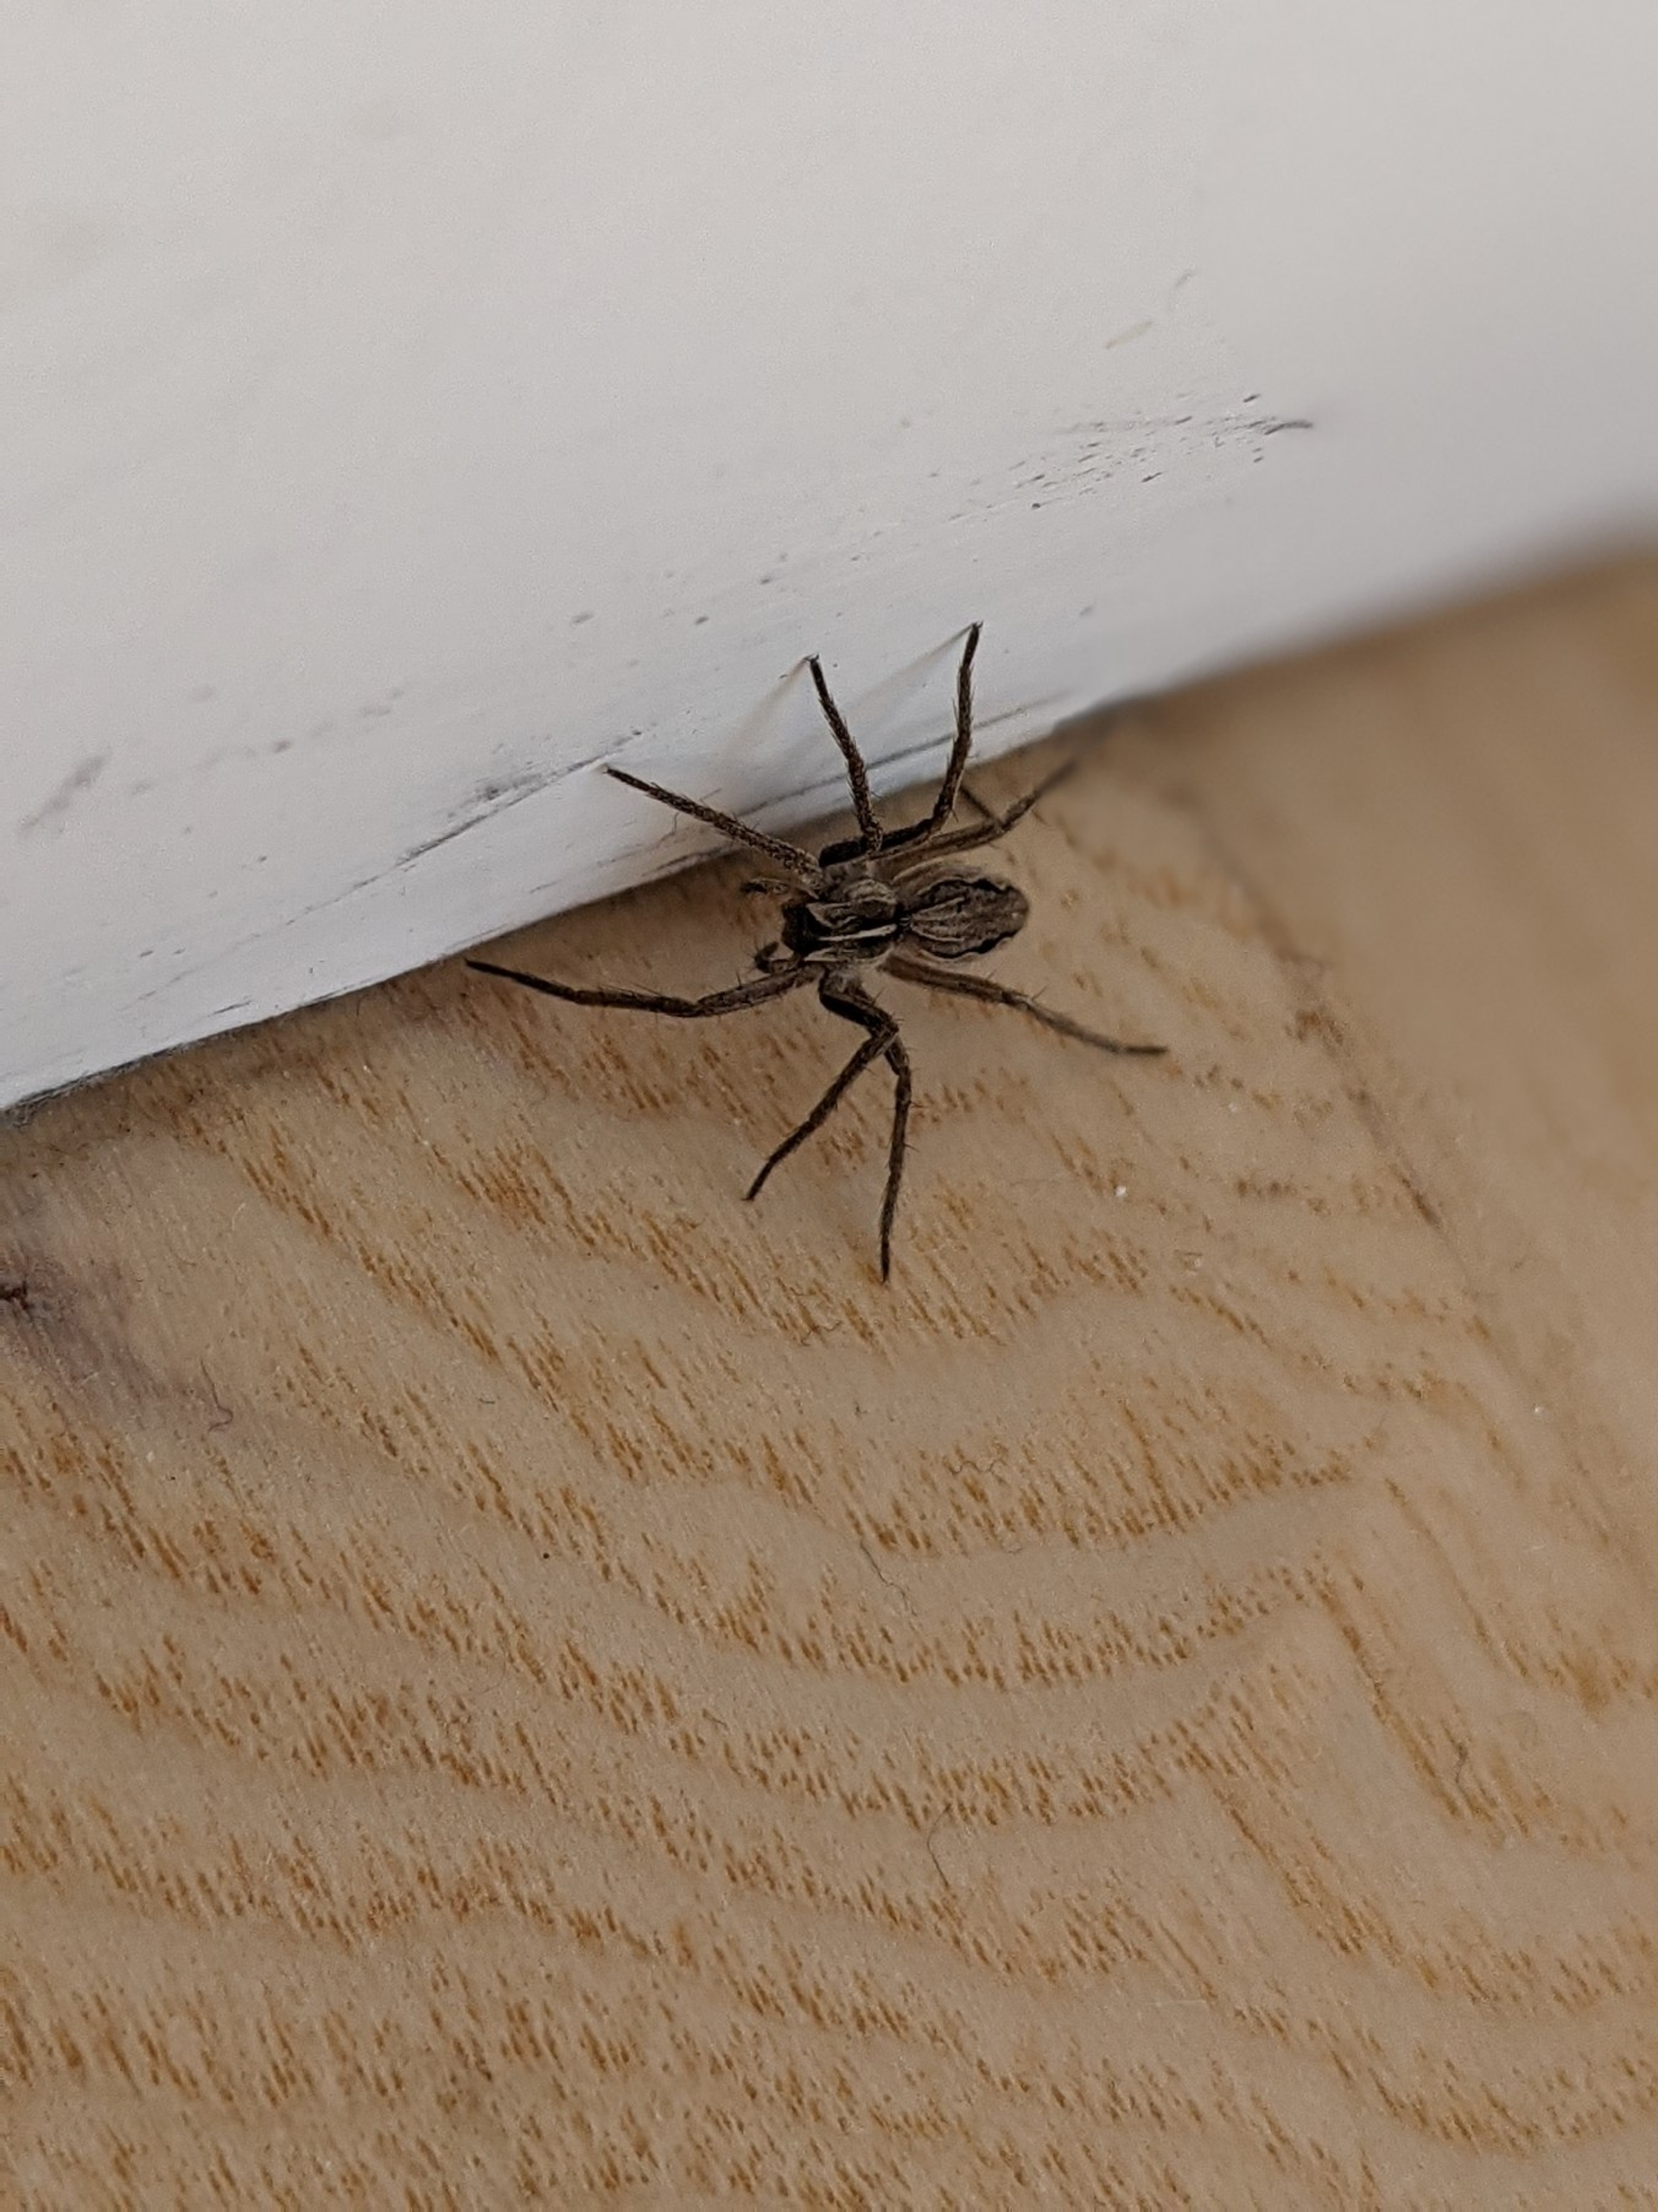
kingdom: Animalia
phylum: Arthropoda
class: Arachnida
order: Araneae
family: Pisauridae
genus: Pisaura
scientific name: Pisaura mirabilis
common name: Almindelig rovedderkop
